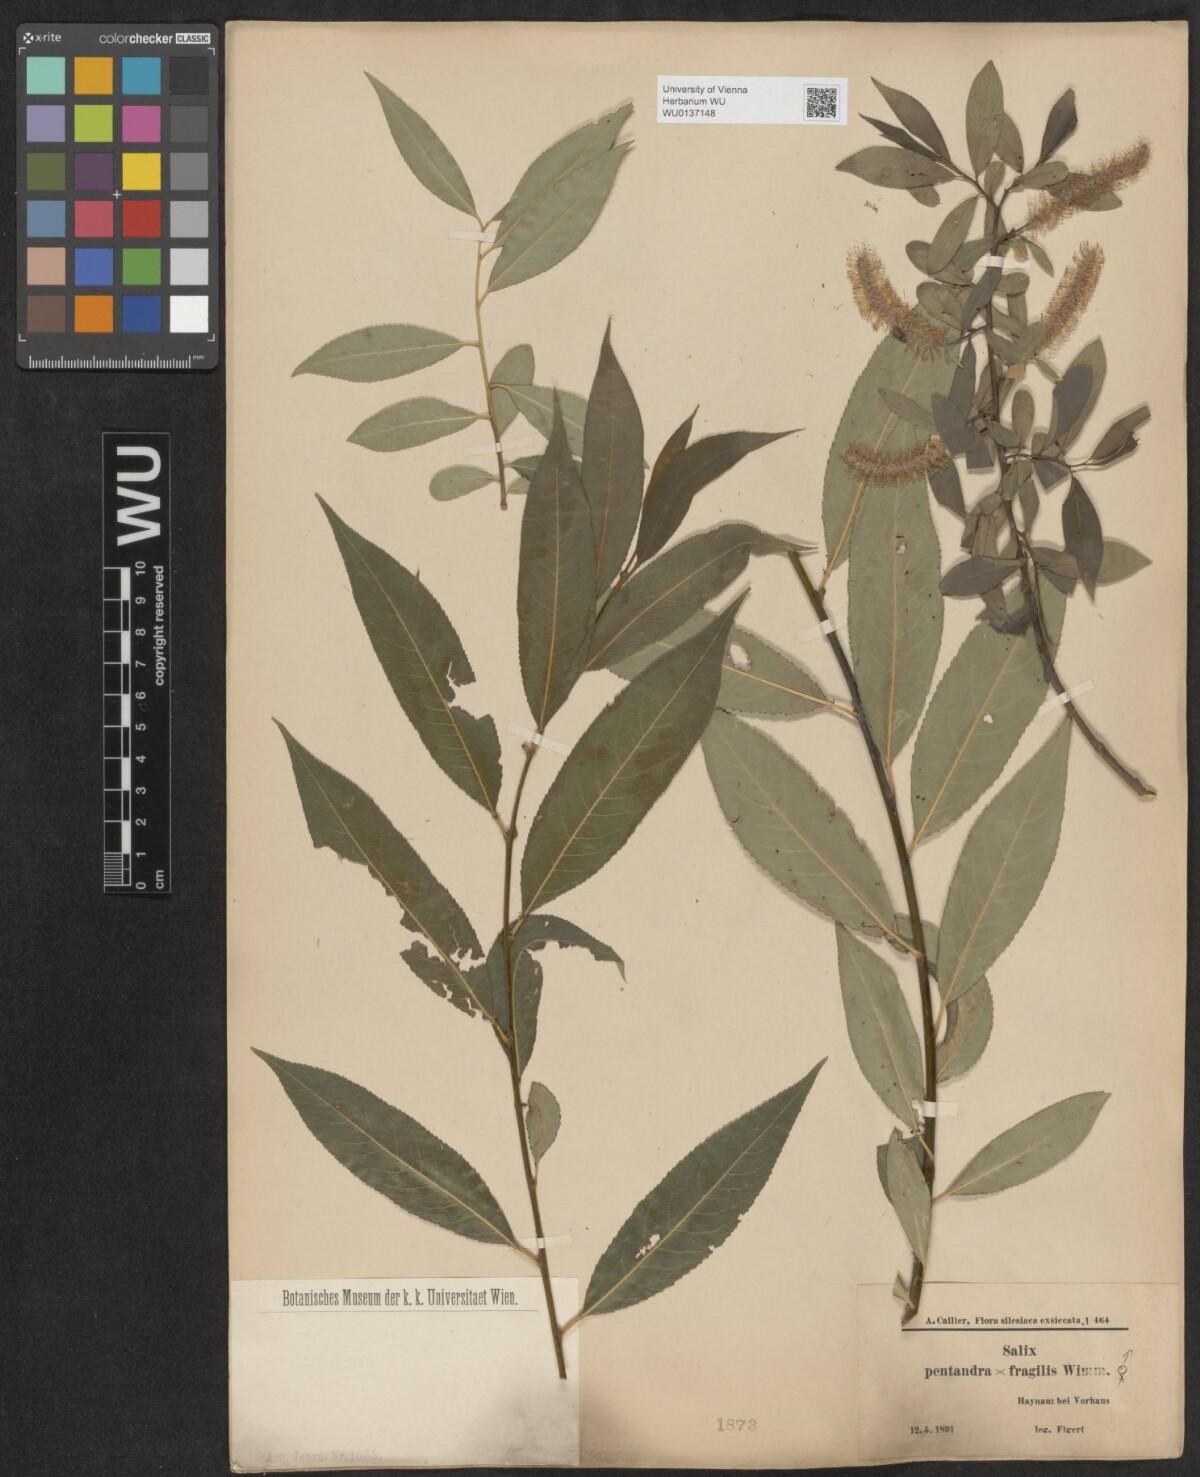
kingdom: Plantae
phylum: Tracheophyta
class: Magnoliopsida
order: Malpighiales
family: Salicaceae
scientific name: Salicaceae
